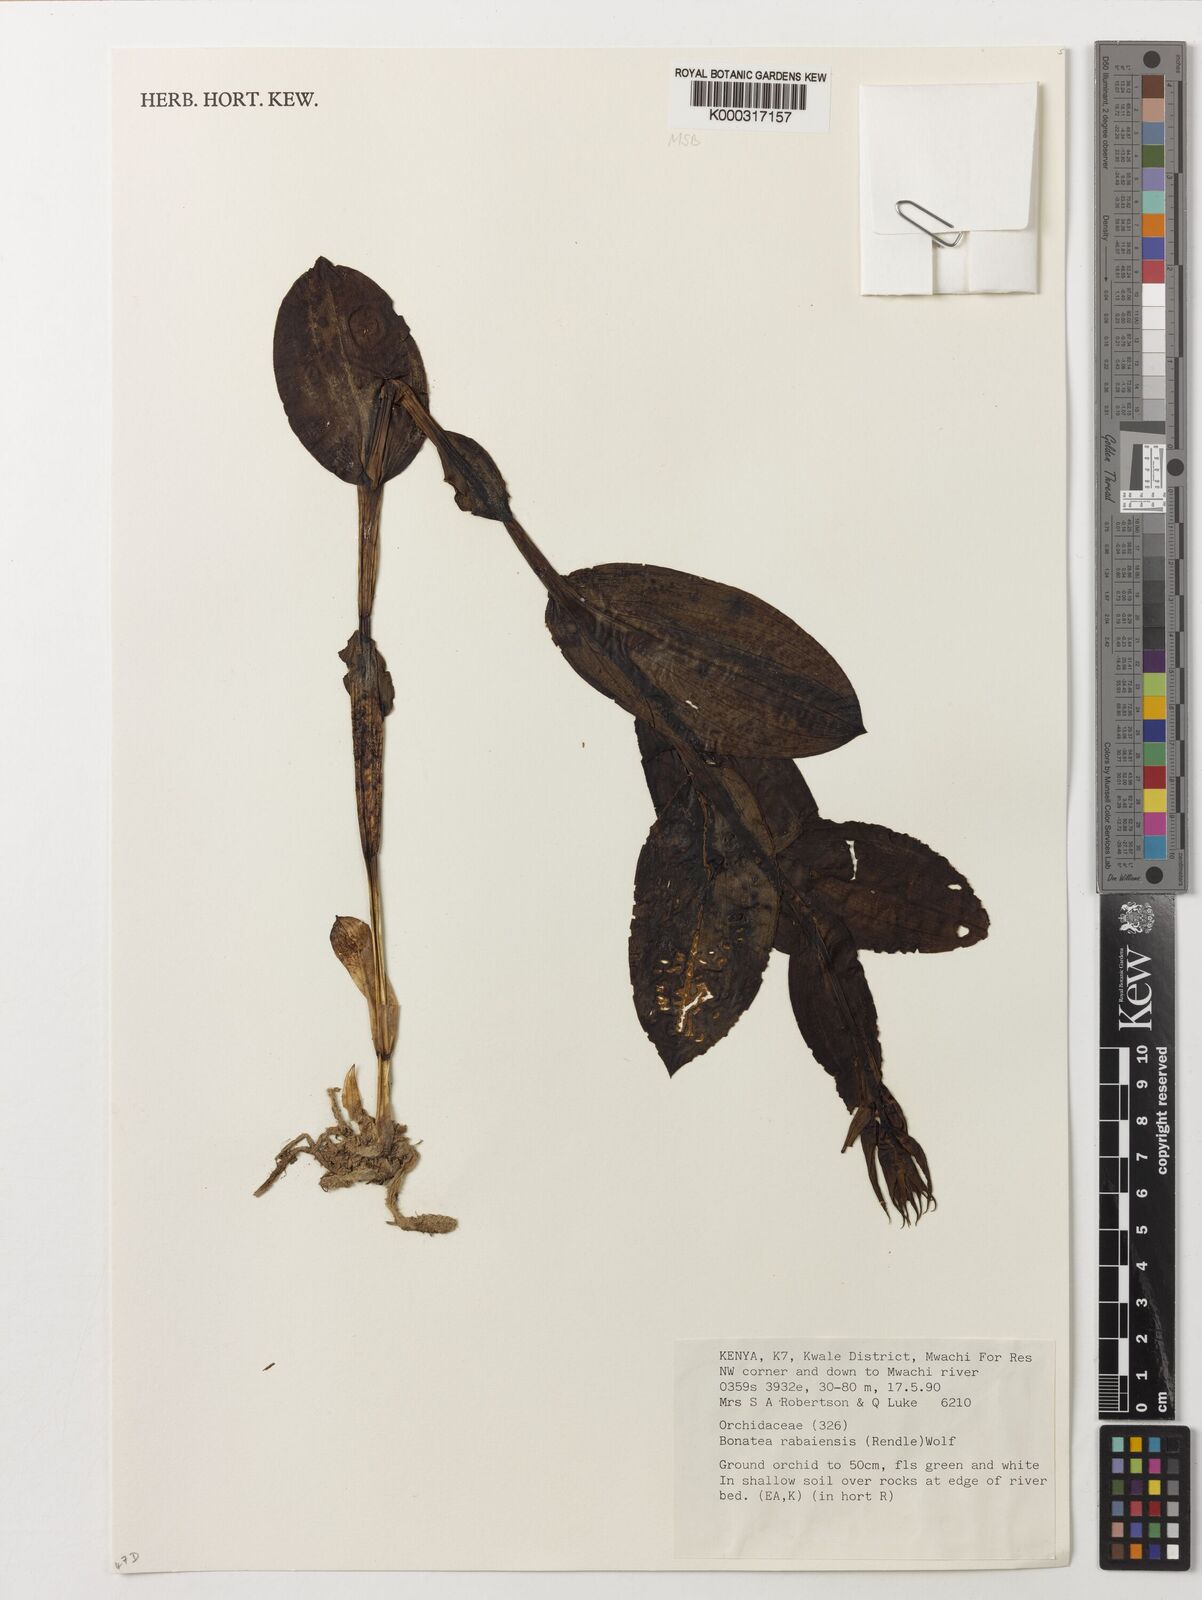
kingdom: Plantae
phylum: Tracheophyta
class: Liliopsida
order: Asparagales
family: Orchidaceae
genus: Bonatea
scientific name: Bonatea rabaiensis
